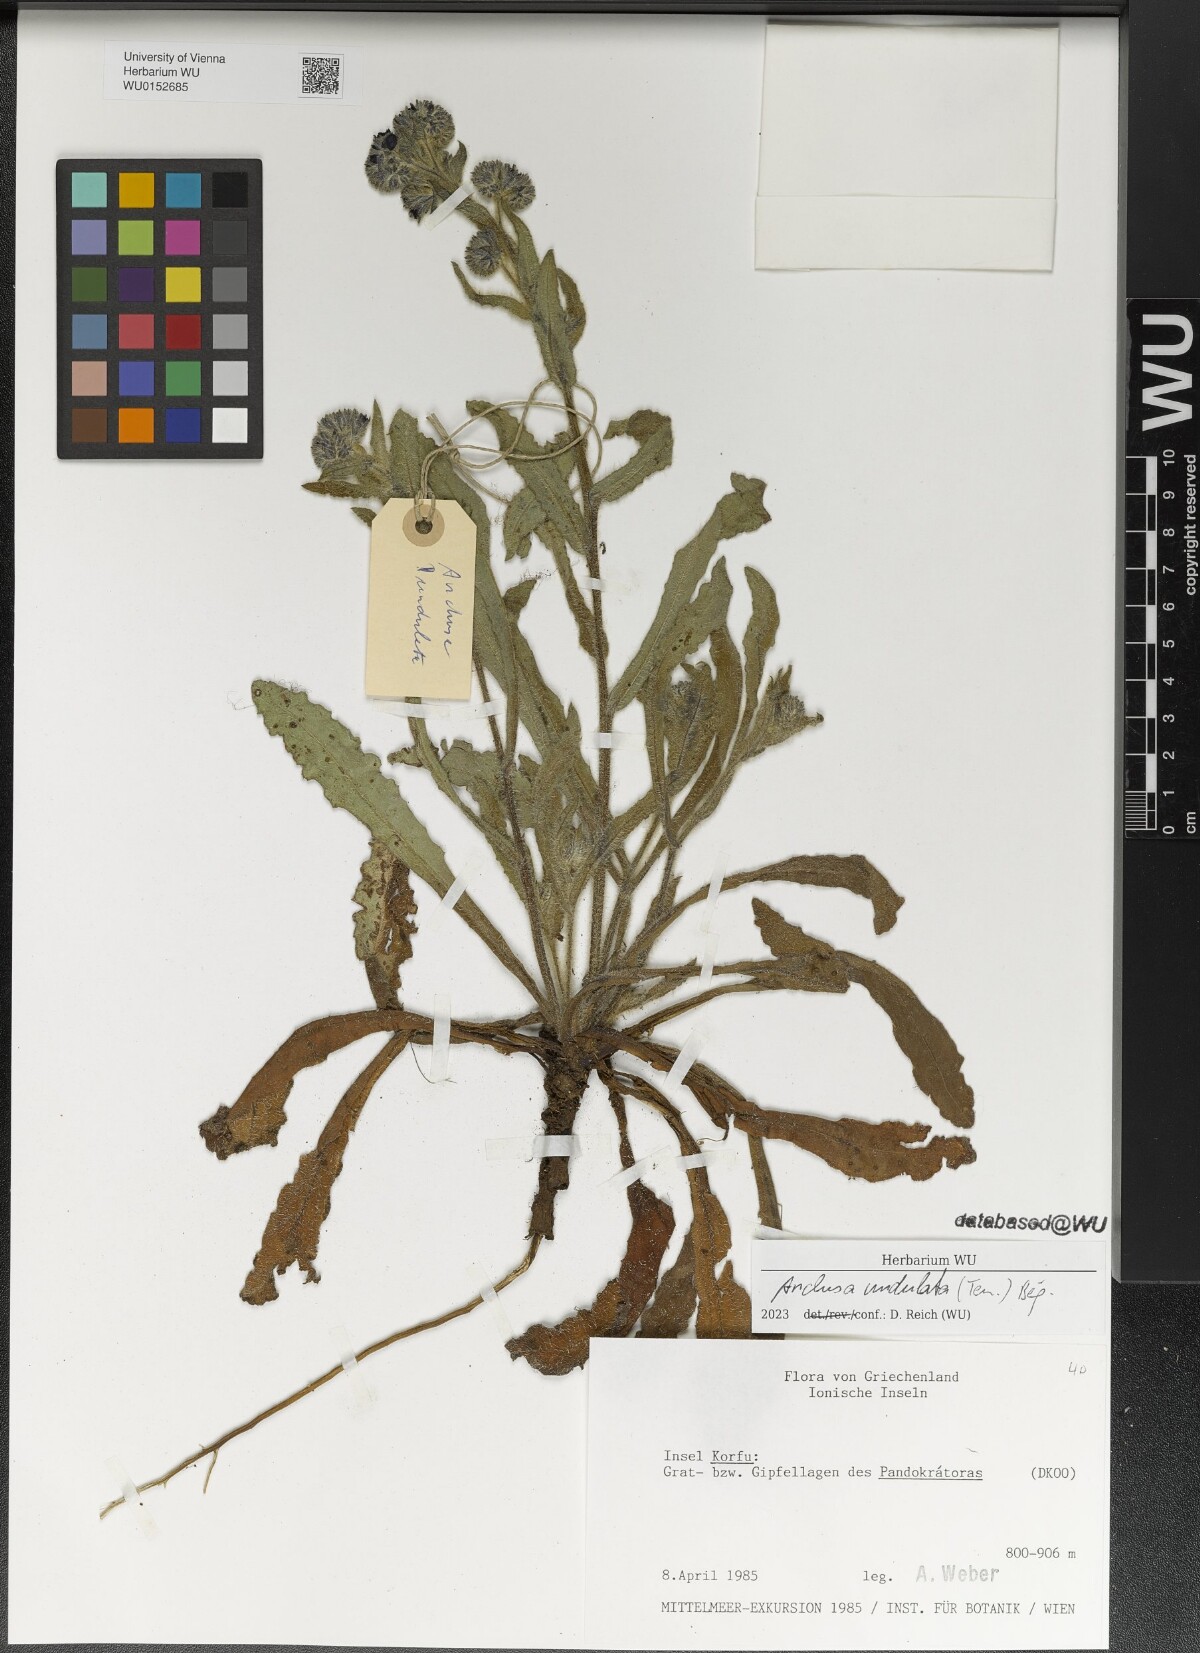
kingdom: Plantae
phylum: Tracheophyta
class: Magnoliopsida
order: Boraginales
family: Boraginaceae
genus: Anchusa
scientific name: Anchusa undulata
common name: Undulate alkanet
